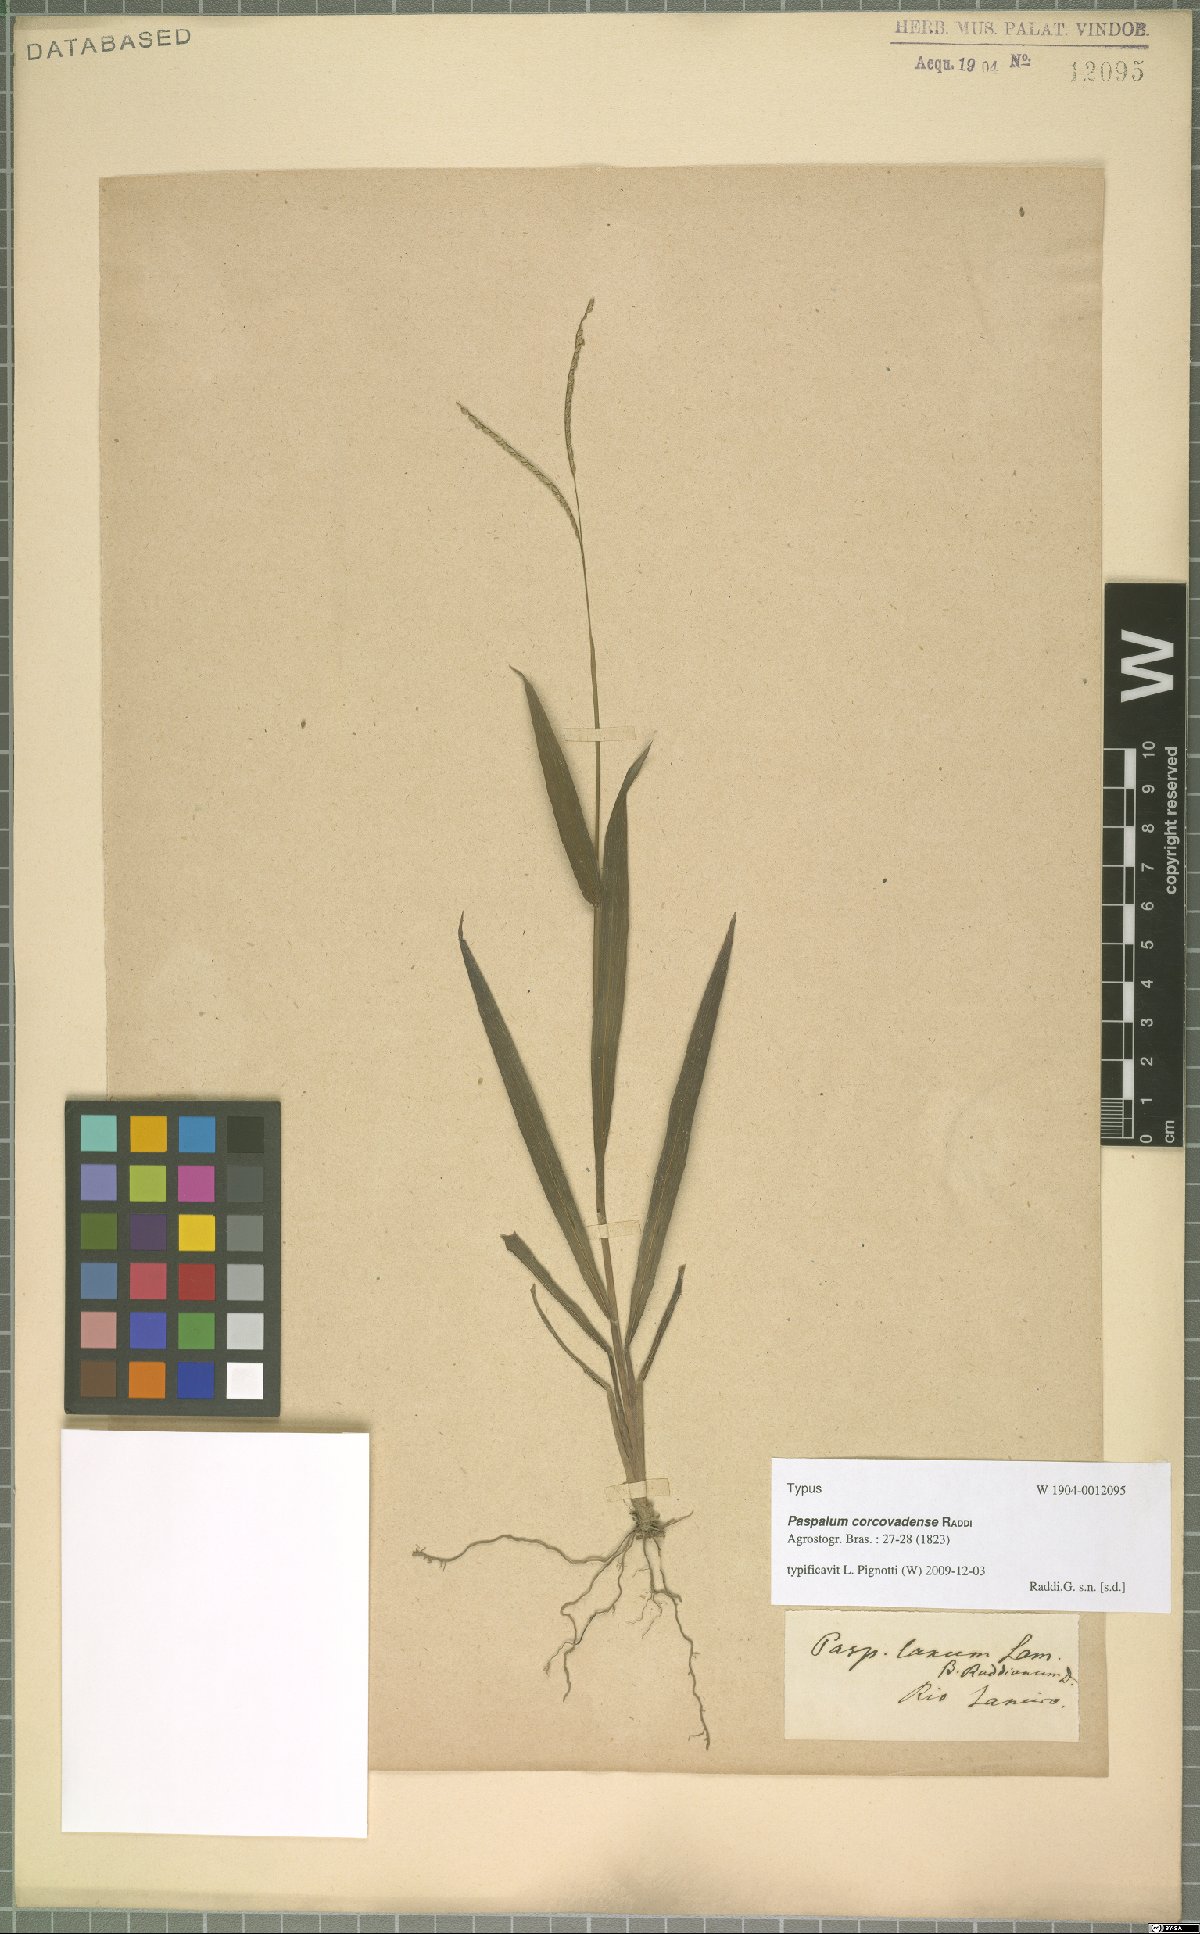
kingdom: Plantae
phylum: Tracheophyta
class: Liliopsida
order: Poales
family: Poaceae
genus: Paspalum
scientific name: Paspalum corcovadense
